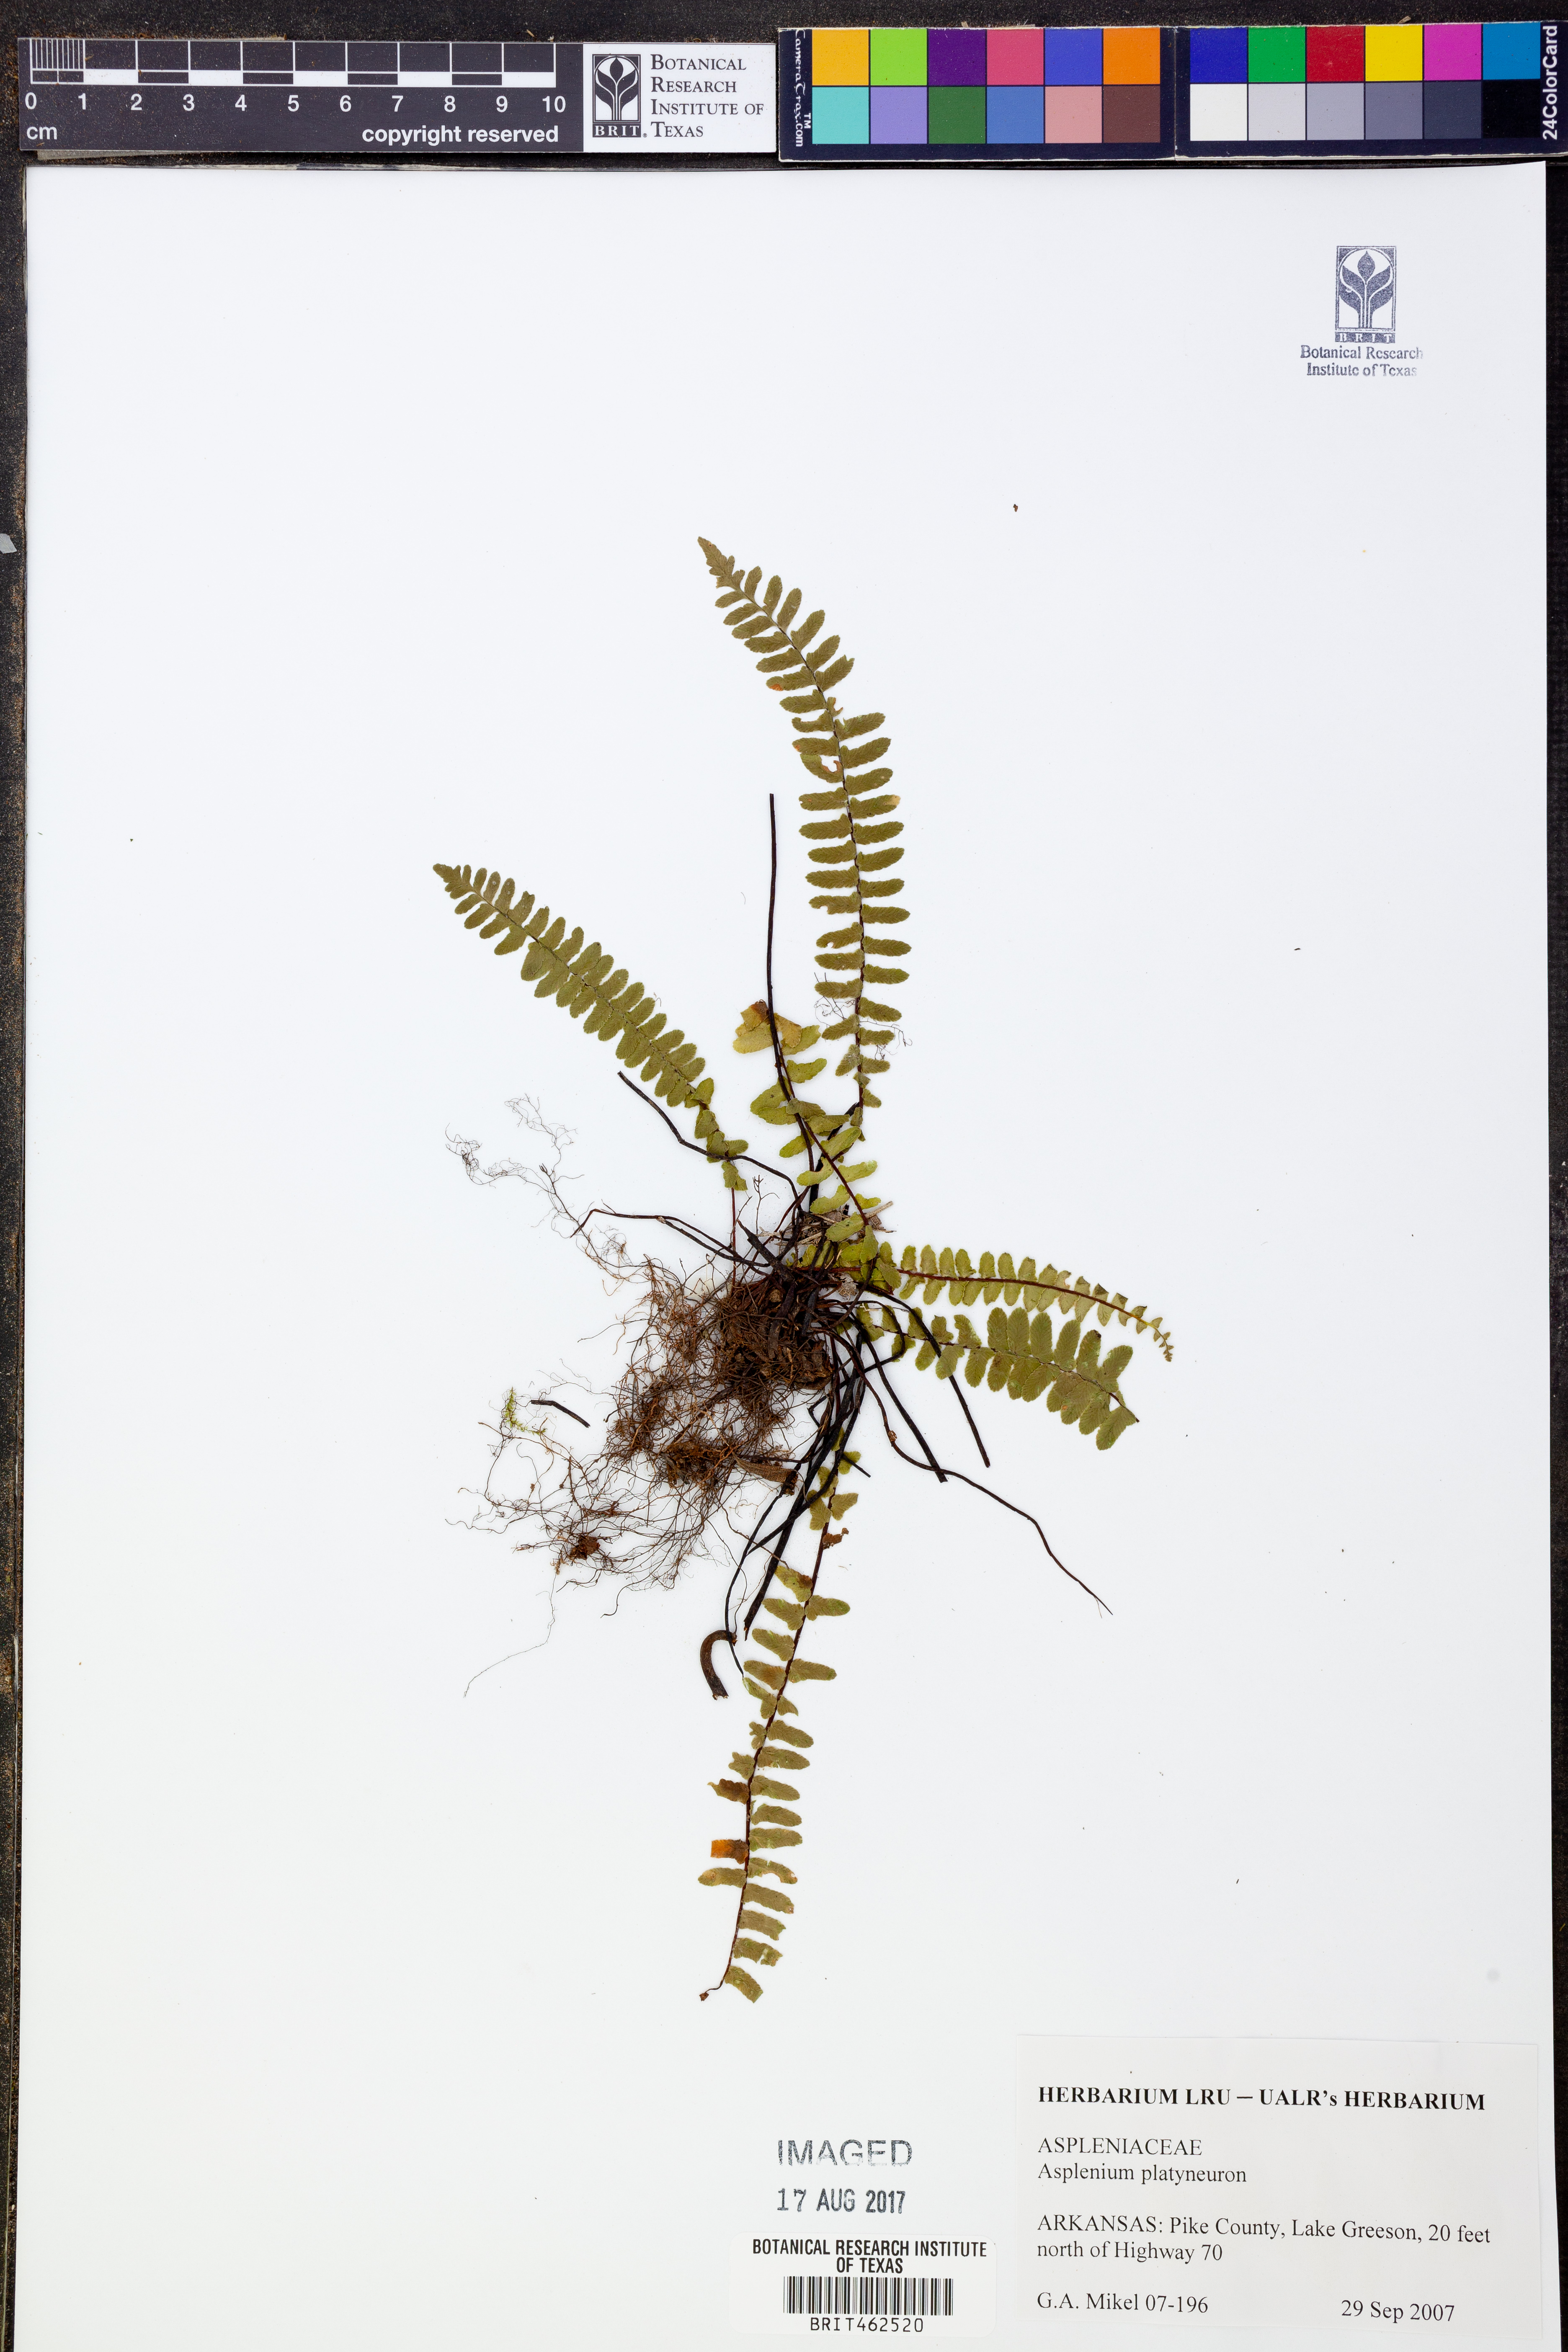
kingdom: Plantae
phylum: Tracheophyta
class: Polypodiopsida
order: Polypodiales
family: Aspleniaceae
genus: Asplenium
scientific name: Asplenium platyneuron
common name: Ebony spleenwort
